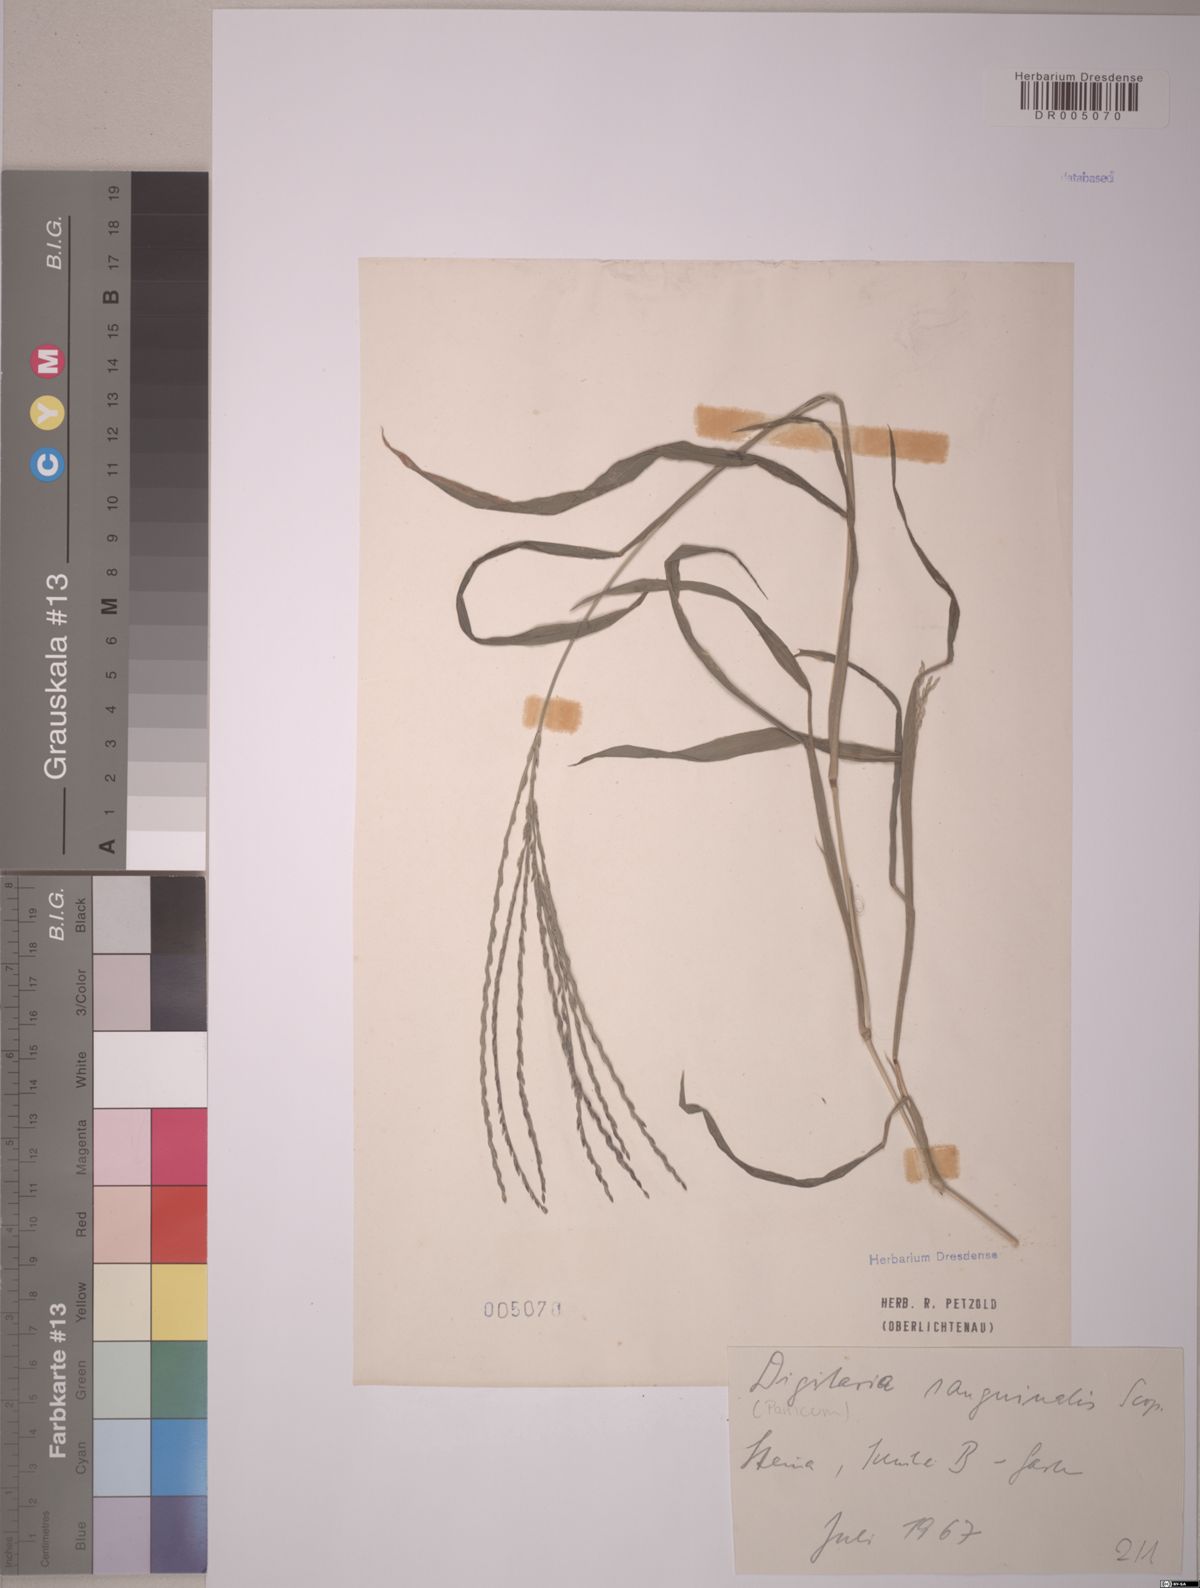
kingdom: Plantae
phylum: Tracheophyta
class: Liliopsida
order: Poales
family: Poaceae
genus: Digitaria
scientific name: Digitaria sanguinalis
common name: Hairy crabgrass
